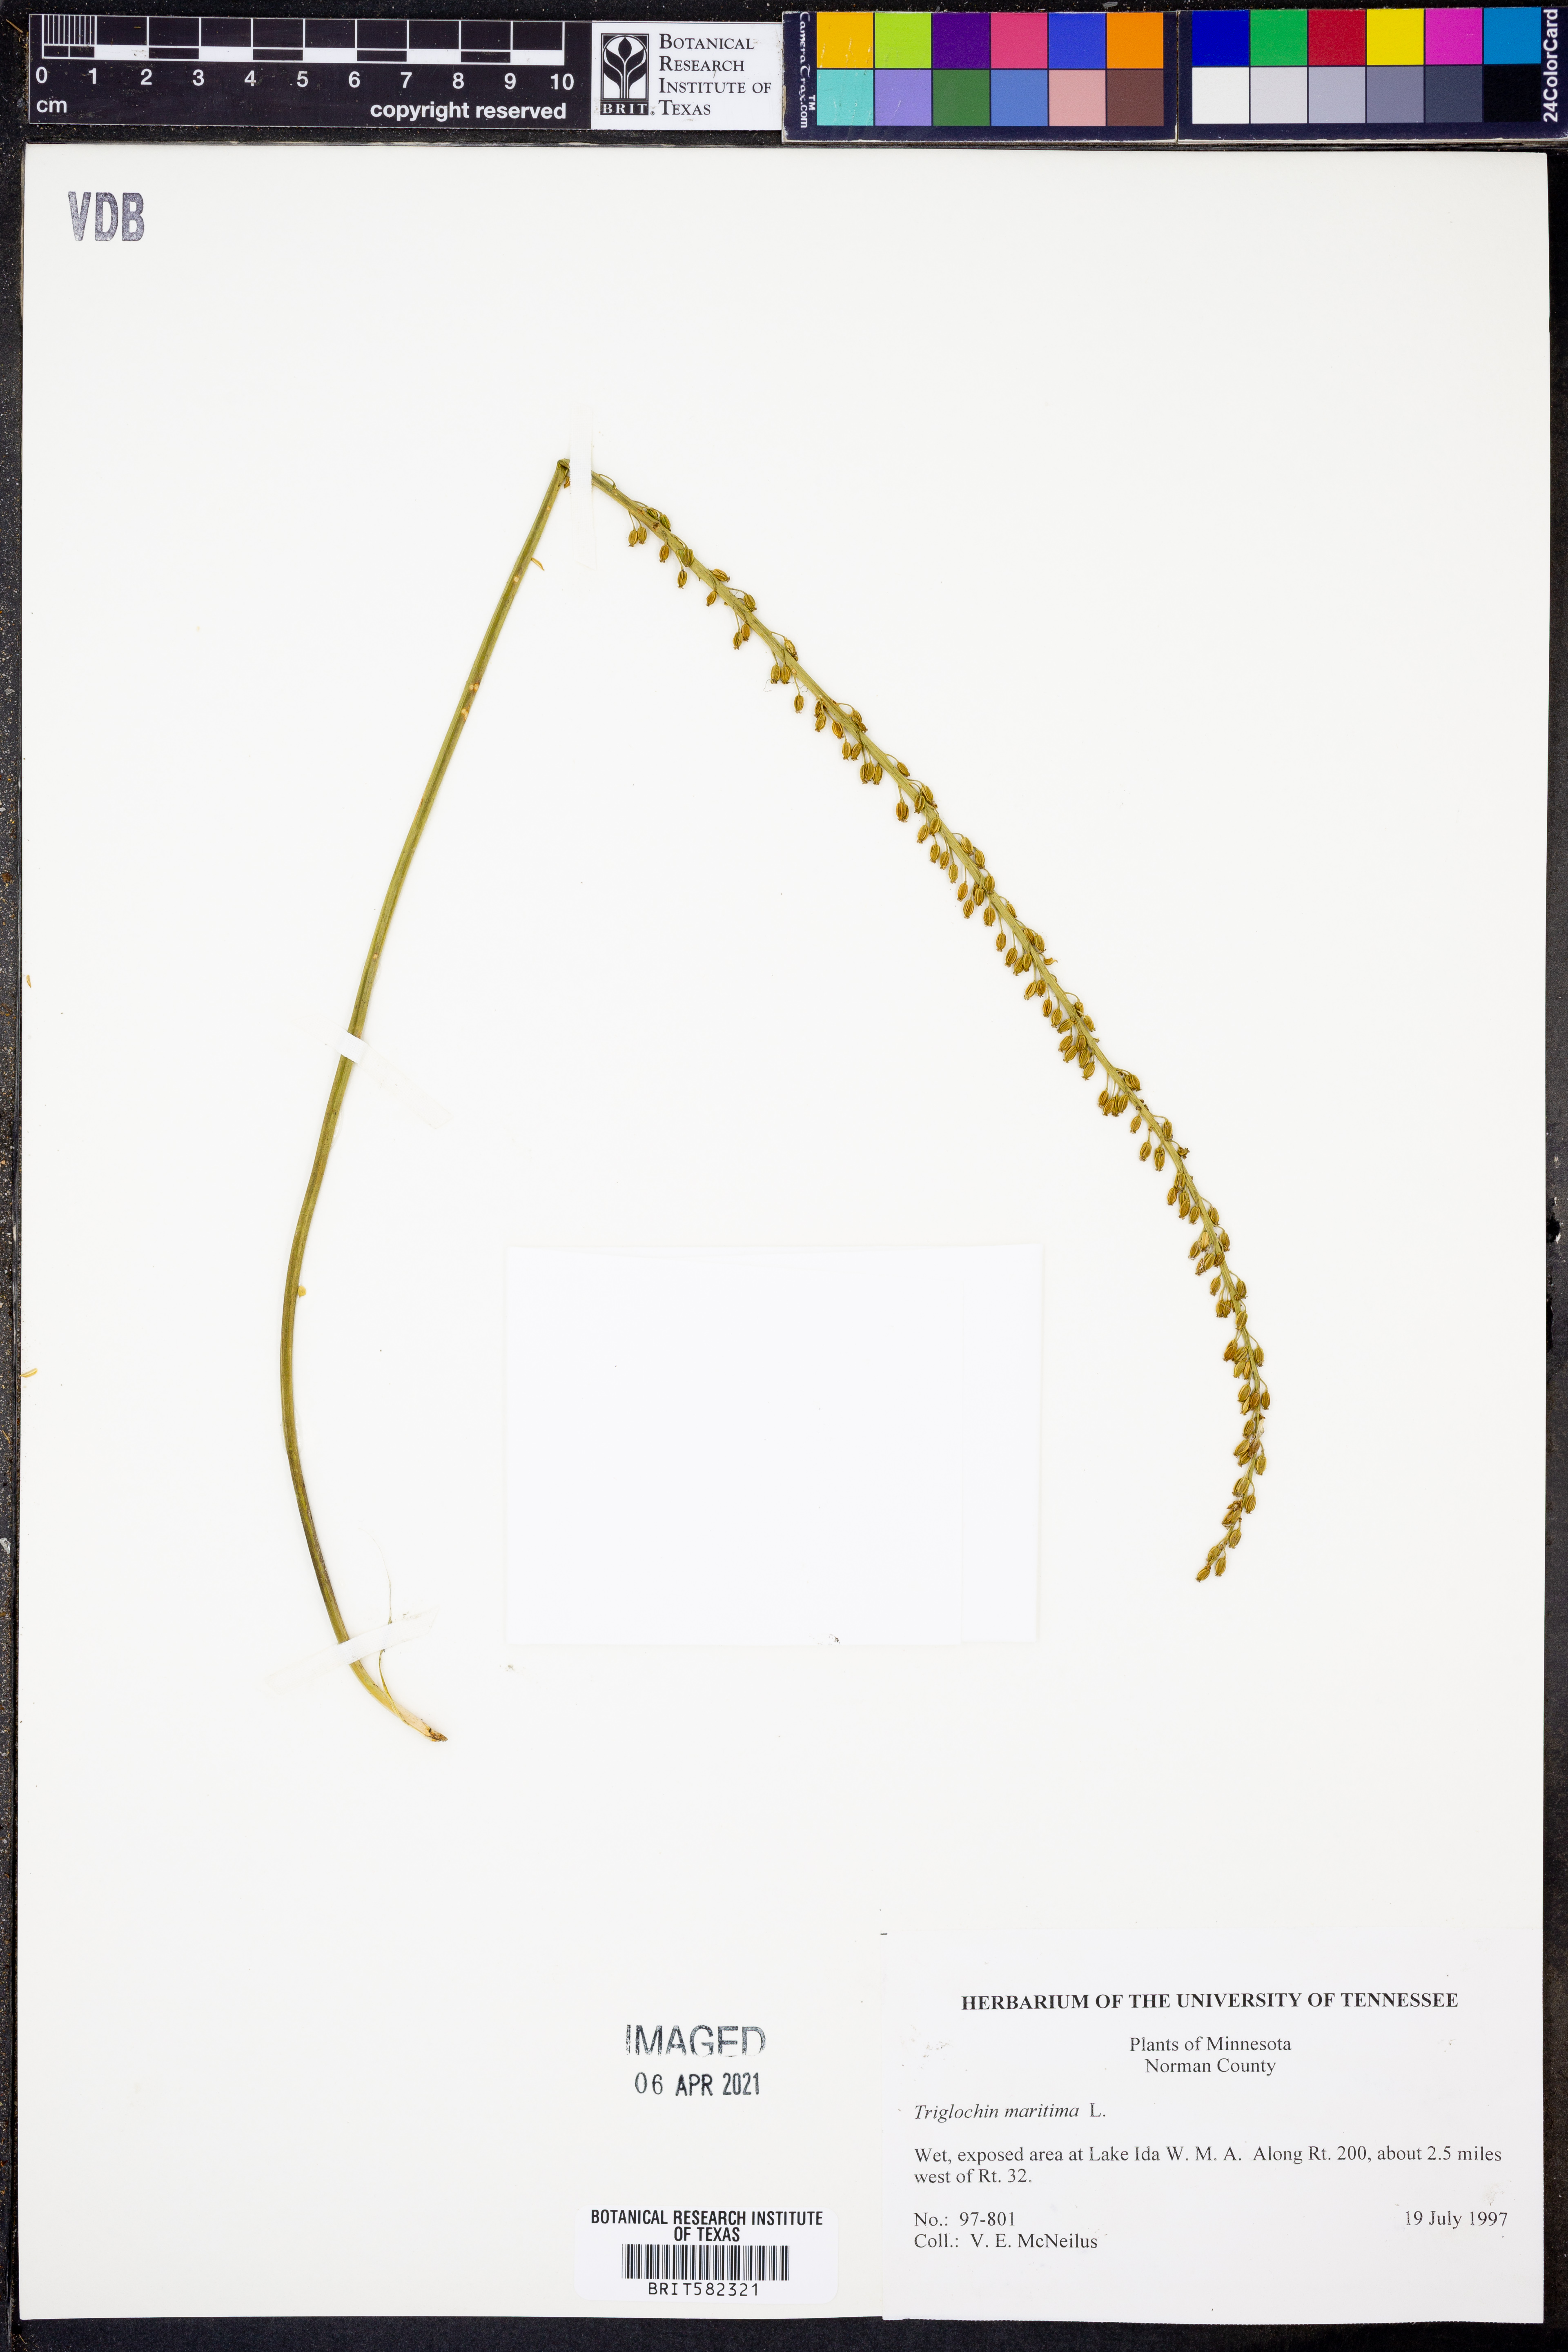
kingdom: Plantae
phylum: Tracheophyta
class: Liliopsida
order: Alismatales
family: Juncaginaceae
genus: Triglochin
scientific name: Triglochin maritima
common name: Sea arrowgrass
